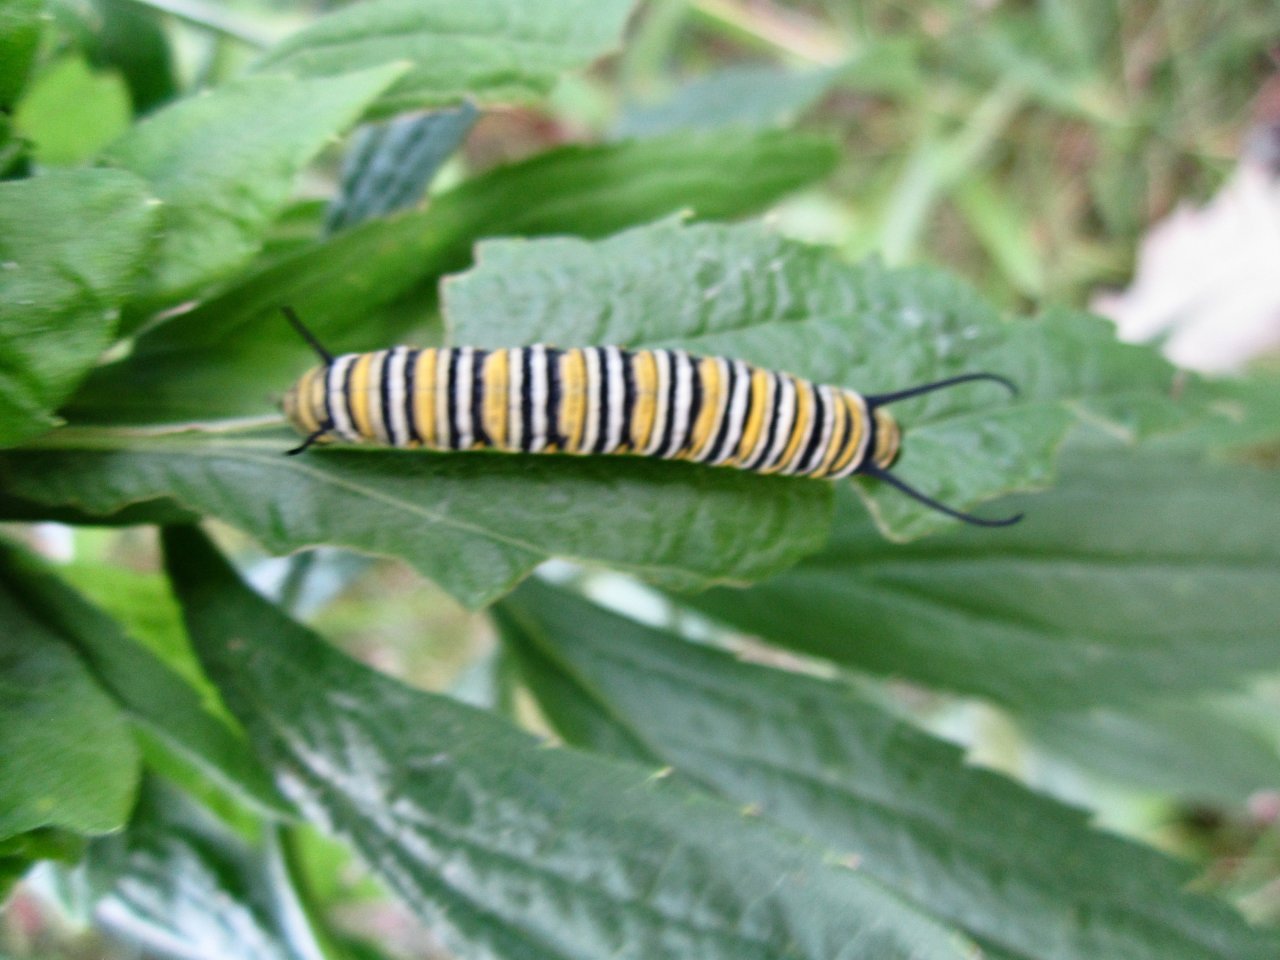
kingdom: Animalia
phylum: Arthropoda
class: Insecta
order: Lepidoptera
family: Nymphalidae
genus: Danaus
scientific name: Danaus plexippus
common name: Monarch
